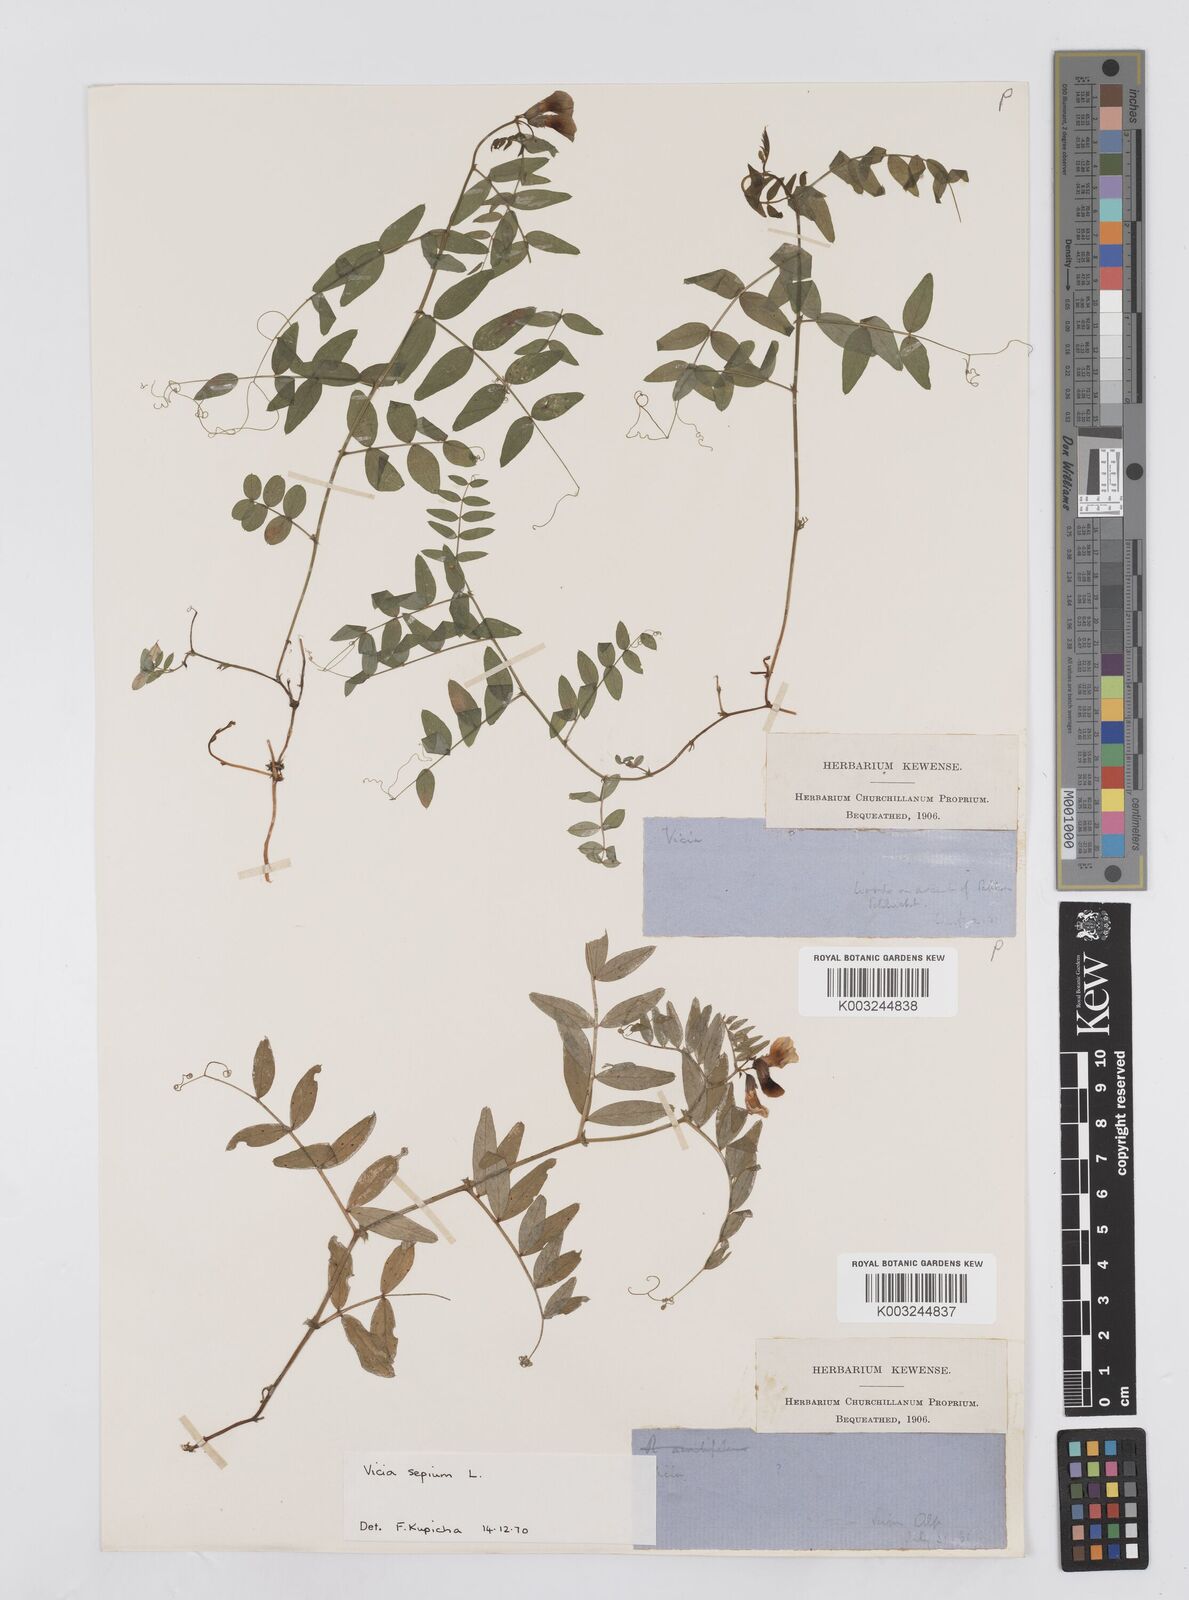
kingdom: Plantae
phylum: Tracheophyta
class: Magnoliopsida
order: Fabales
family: Fabaceae
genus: Vicia
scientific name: Vicia sepium
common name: Bush vetch
